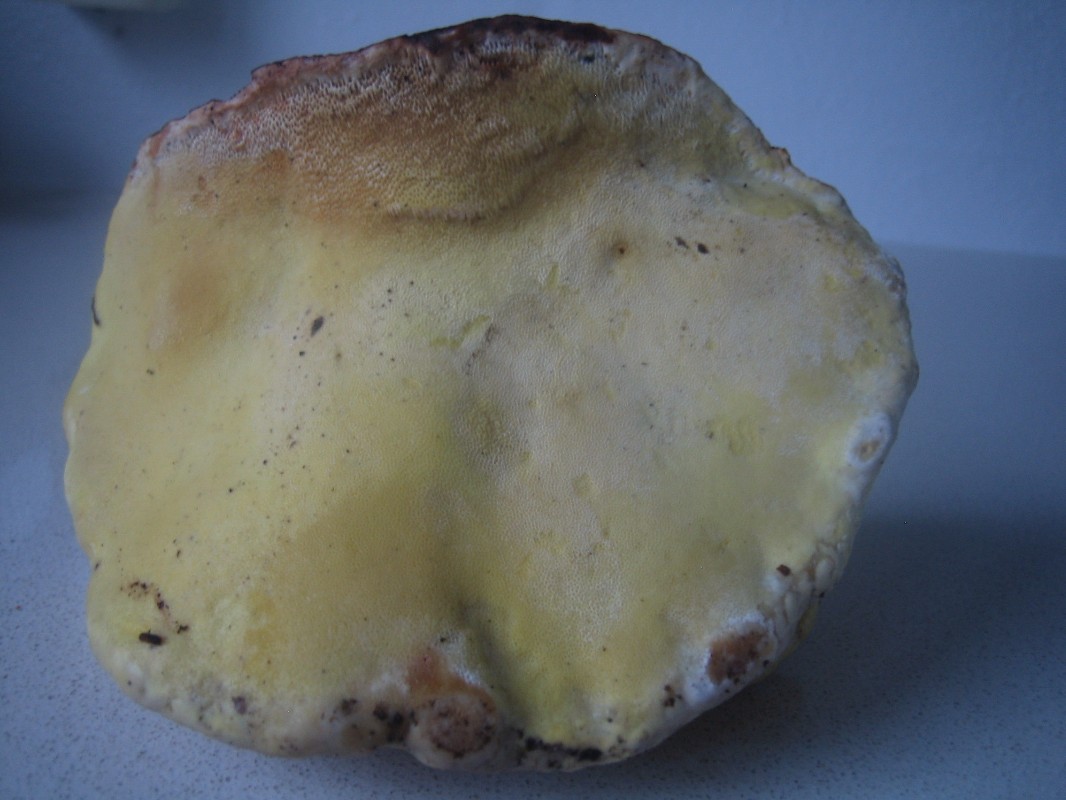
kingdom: Fungi
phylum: Basidiomycota
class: Agaricomycetes
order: Polyporales
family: Fomitopsidaceae
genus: Fomitopsis
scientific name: Fomitopsis pinicola
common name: randbæltet hovporesvamp
